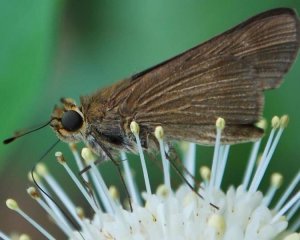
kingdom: Animalia
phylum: Arthropoda
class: Insecta
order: Lepidoptera
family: Hesperiidae
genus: Panoquina
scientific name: Panoquina ocola
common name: Ocola Skipper
